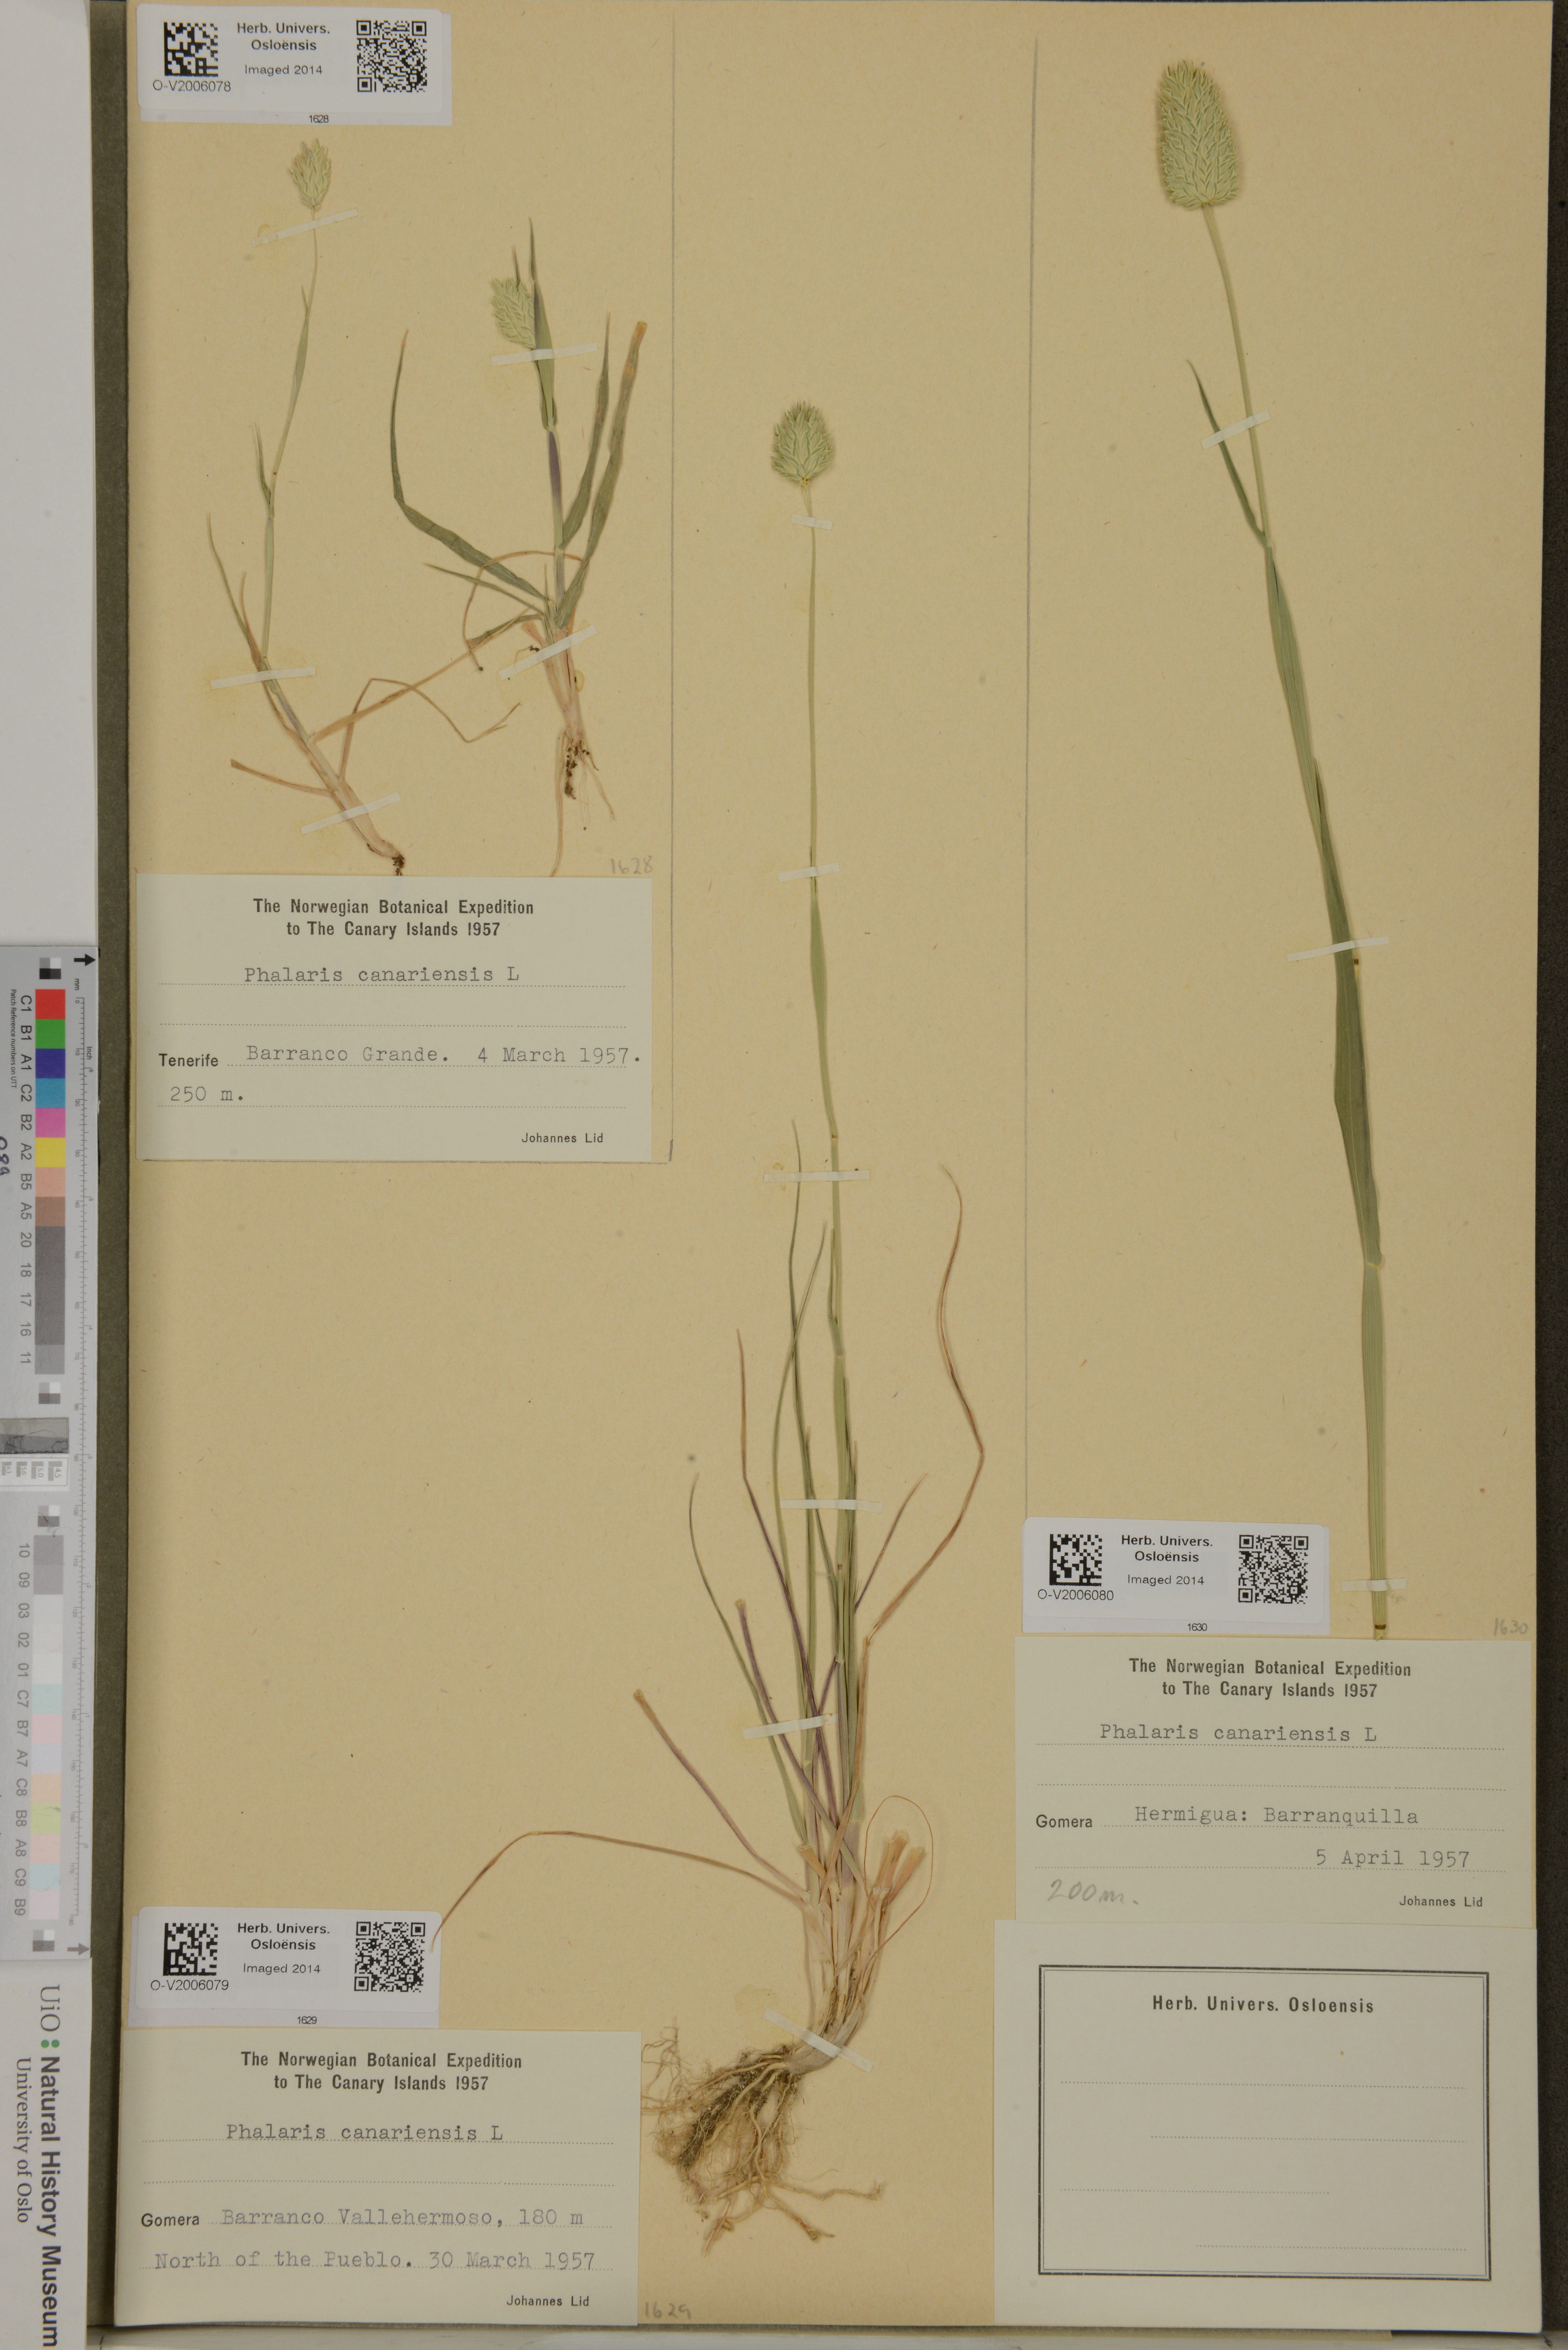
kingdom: Plantae
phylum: Tracheophyta
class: Liliopsida
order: Poales
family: Poaceae
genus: Phalaris
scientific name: Phalaris canariensis
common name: Annual canarygrass
